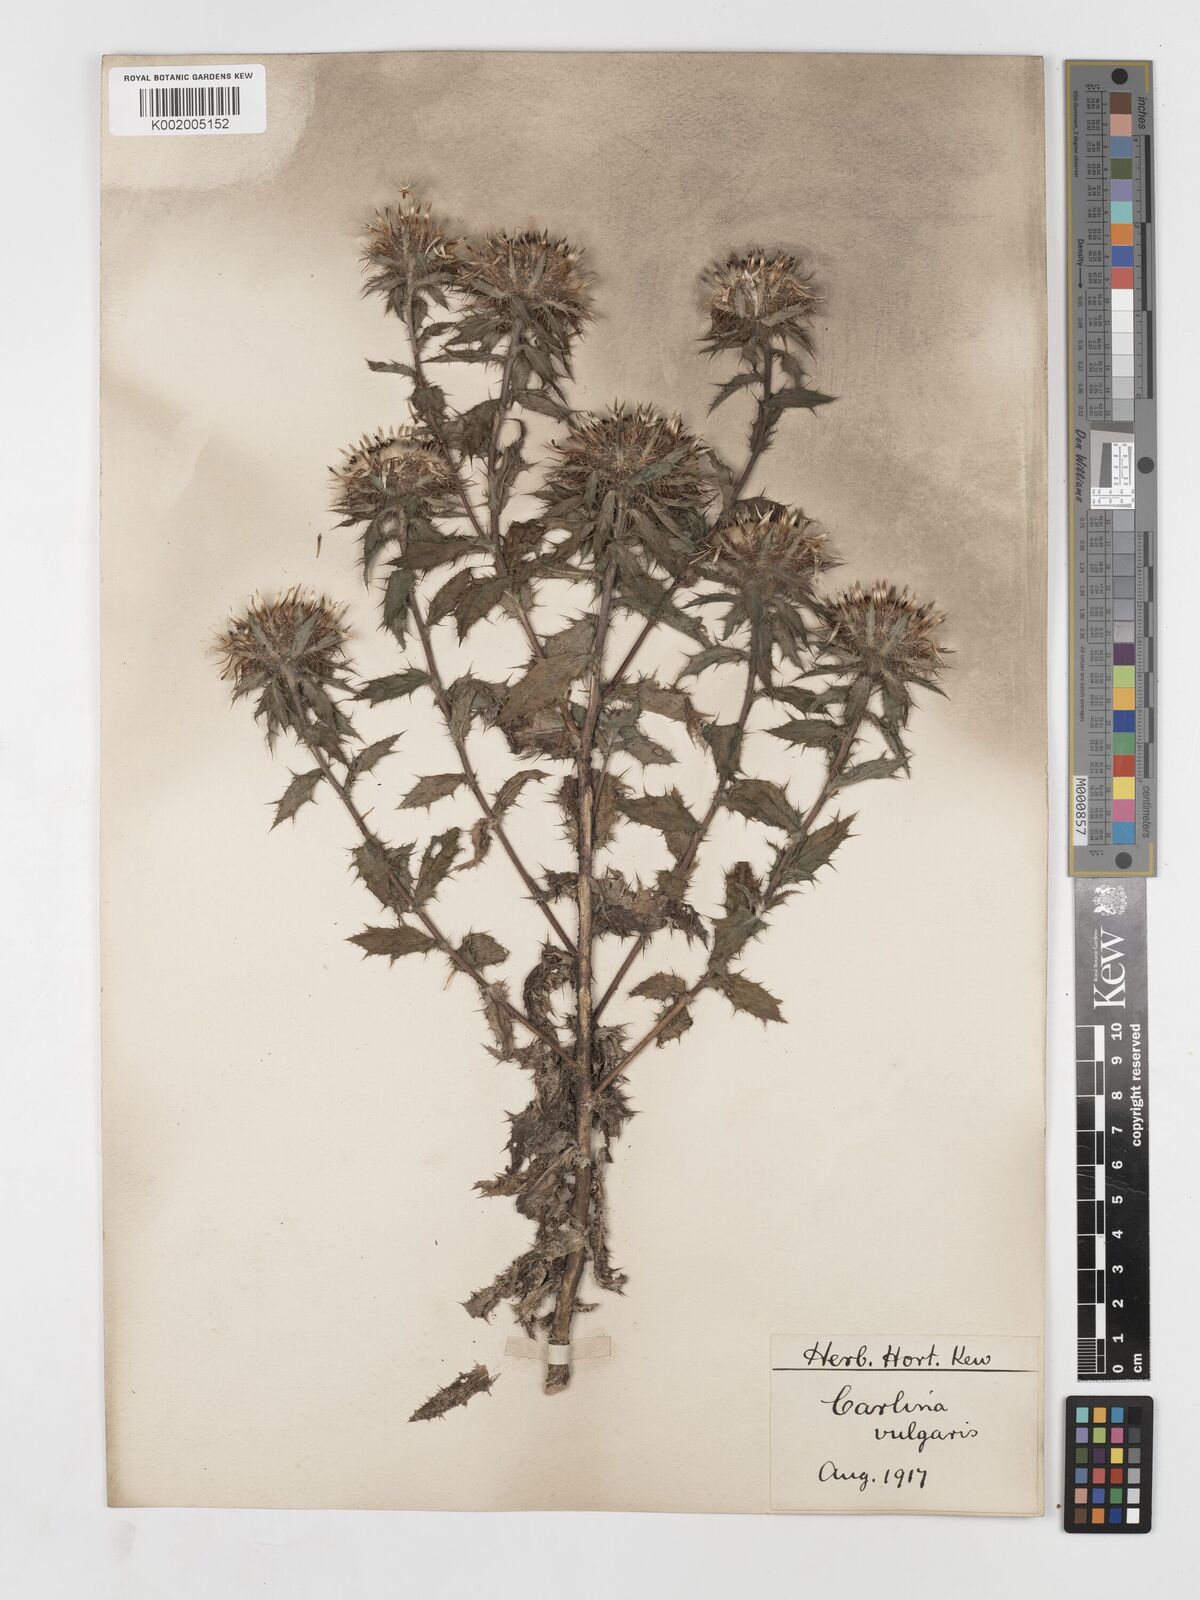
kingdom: Plantae
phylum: Tracheophyta
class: Magnoliopsida
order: Asterales
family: Asteraceae
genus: Carlina
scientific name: Carlina vulgaris
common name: Carline thistle
